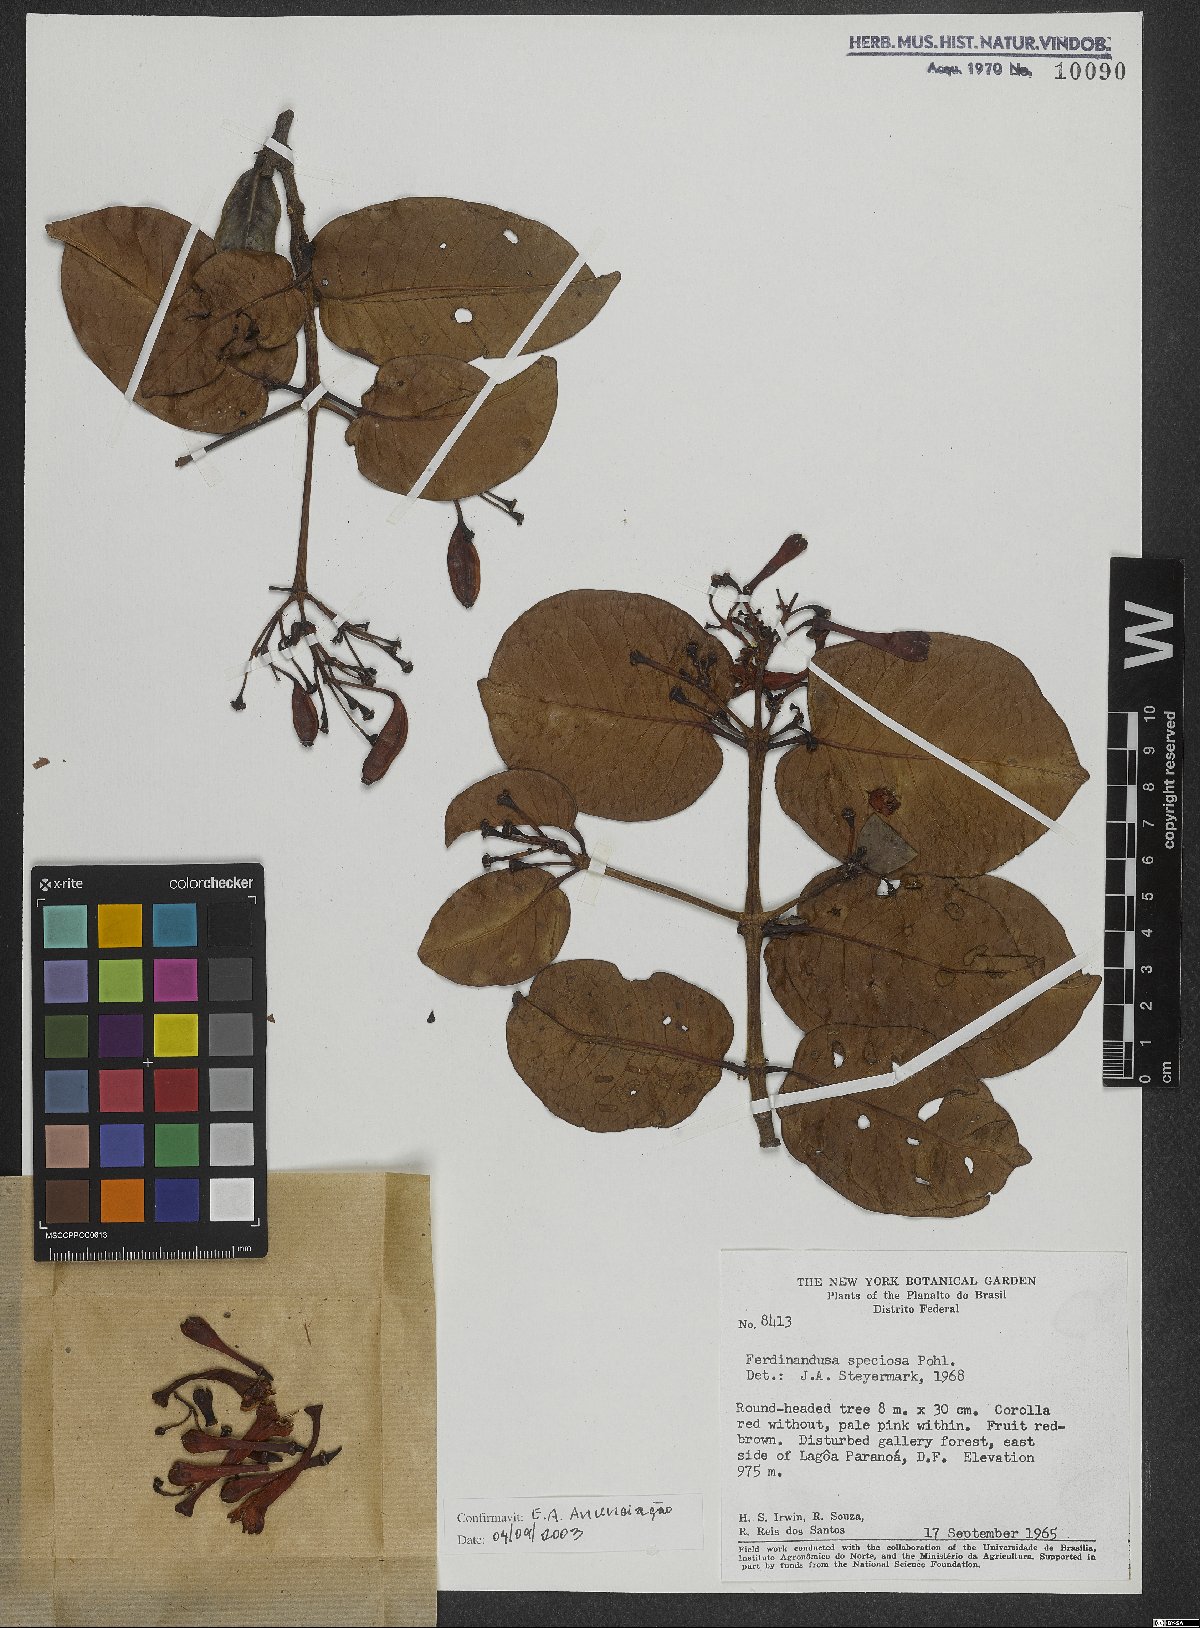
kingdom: Plantae
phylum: Tracheophyta
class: Magnoliopsida
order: Gentianales
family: Rubiaceae
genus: Ferdinandusa
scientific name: Ferdinandusa speciosa
